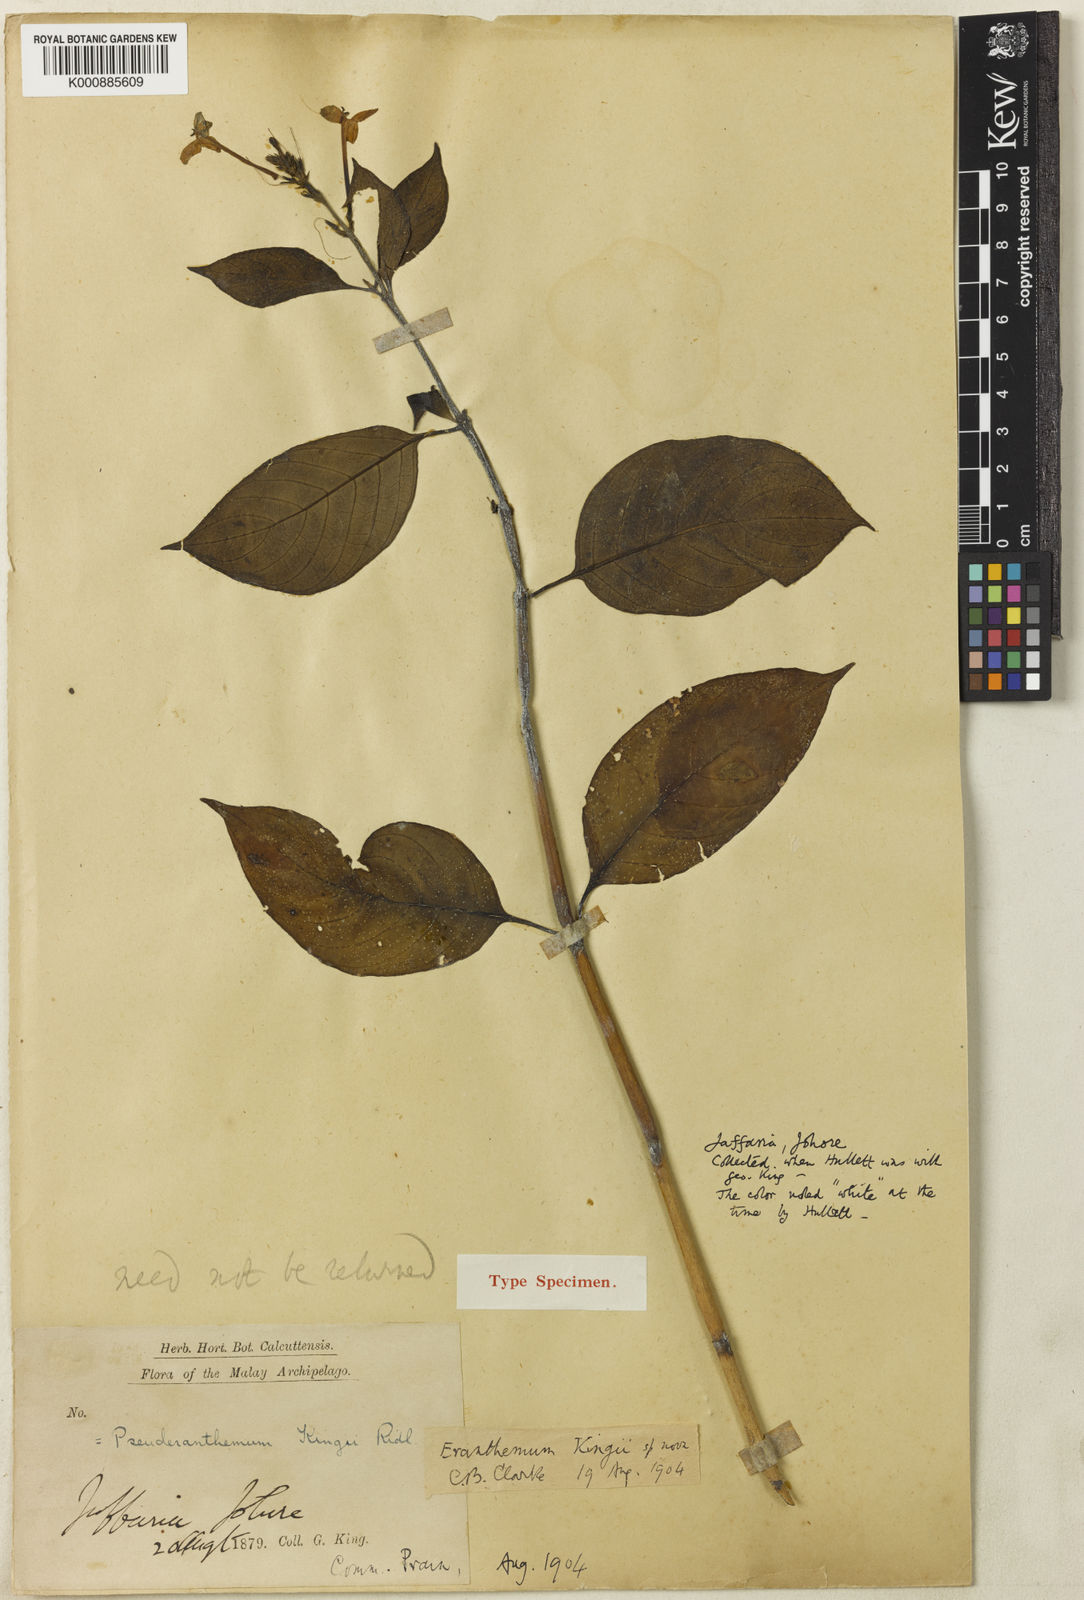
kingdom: Plantae
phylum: Tracheophyta
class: Magnoliopsida
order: Lamiales
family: Acanthaceae
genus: Pseuderanthemum
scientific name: Pseuderanthemum kingii
